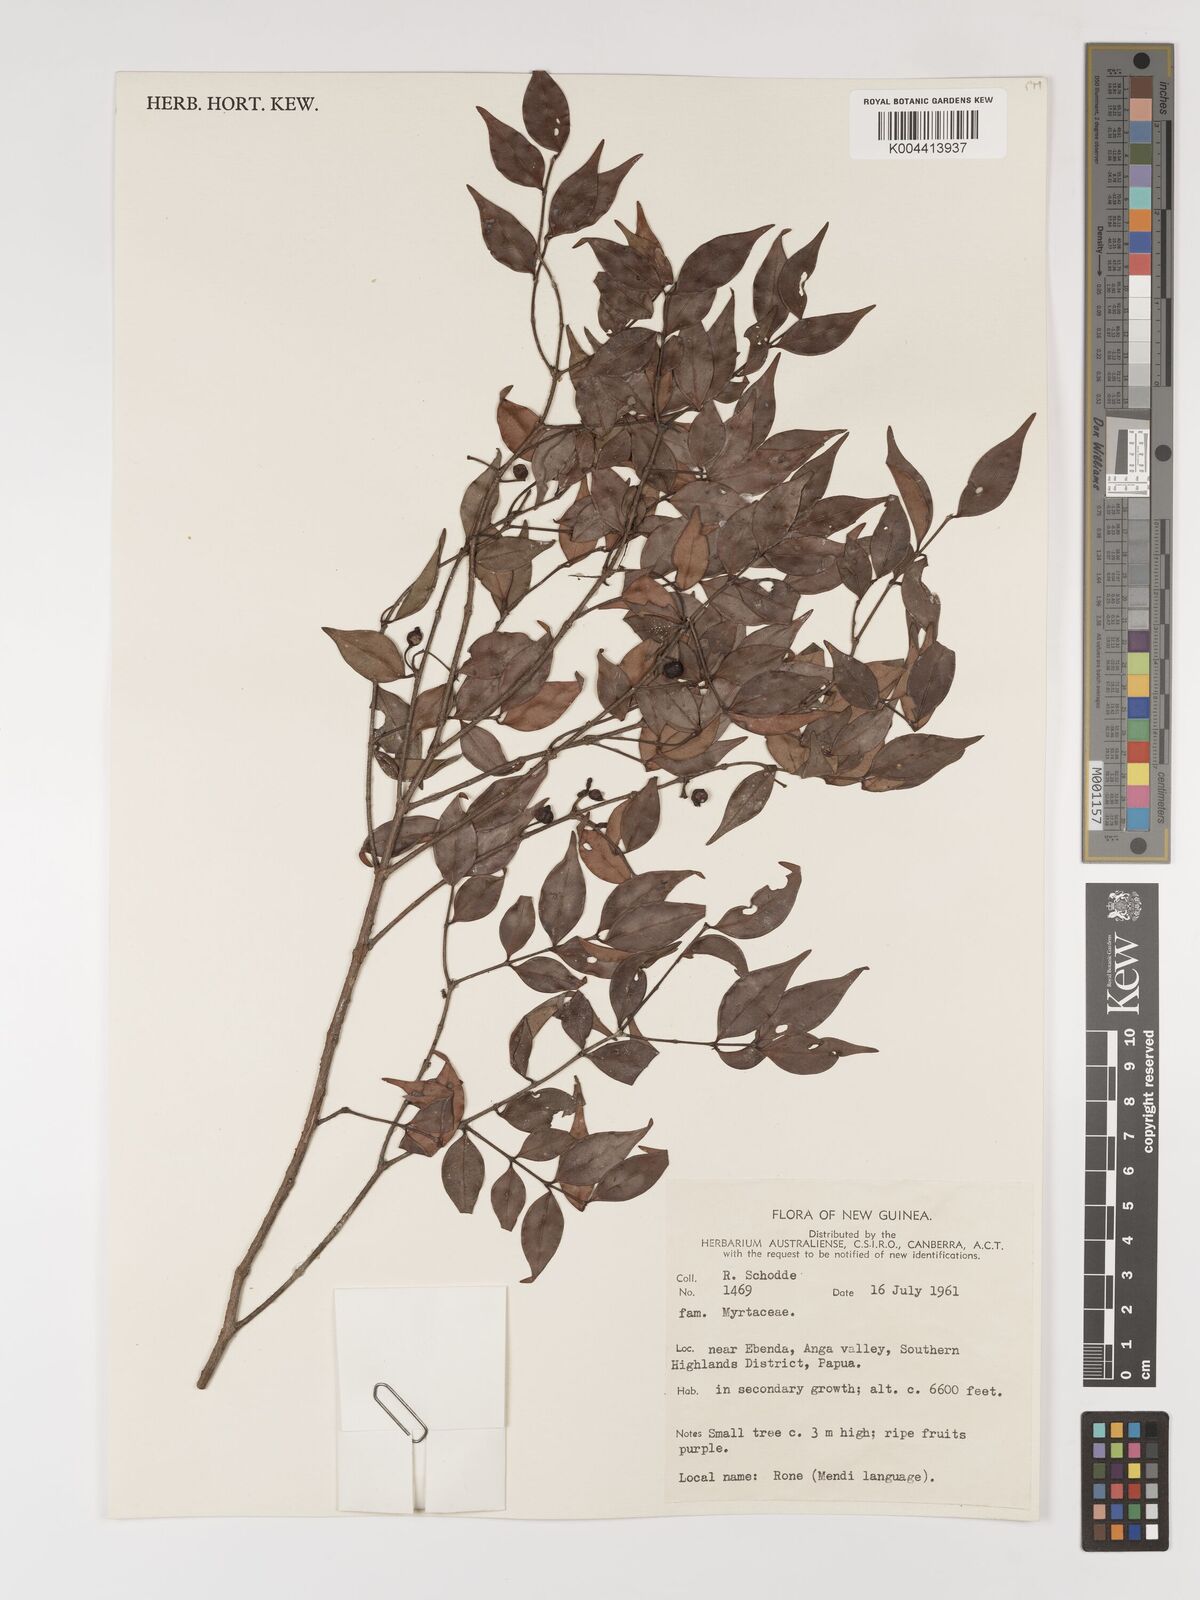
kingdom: Plantae
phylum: Tracheophyta
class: Magnoliopsida
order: Myrtales
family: Myrtaceae
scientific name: Myrtaceae
